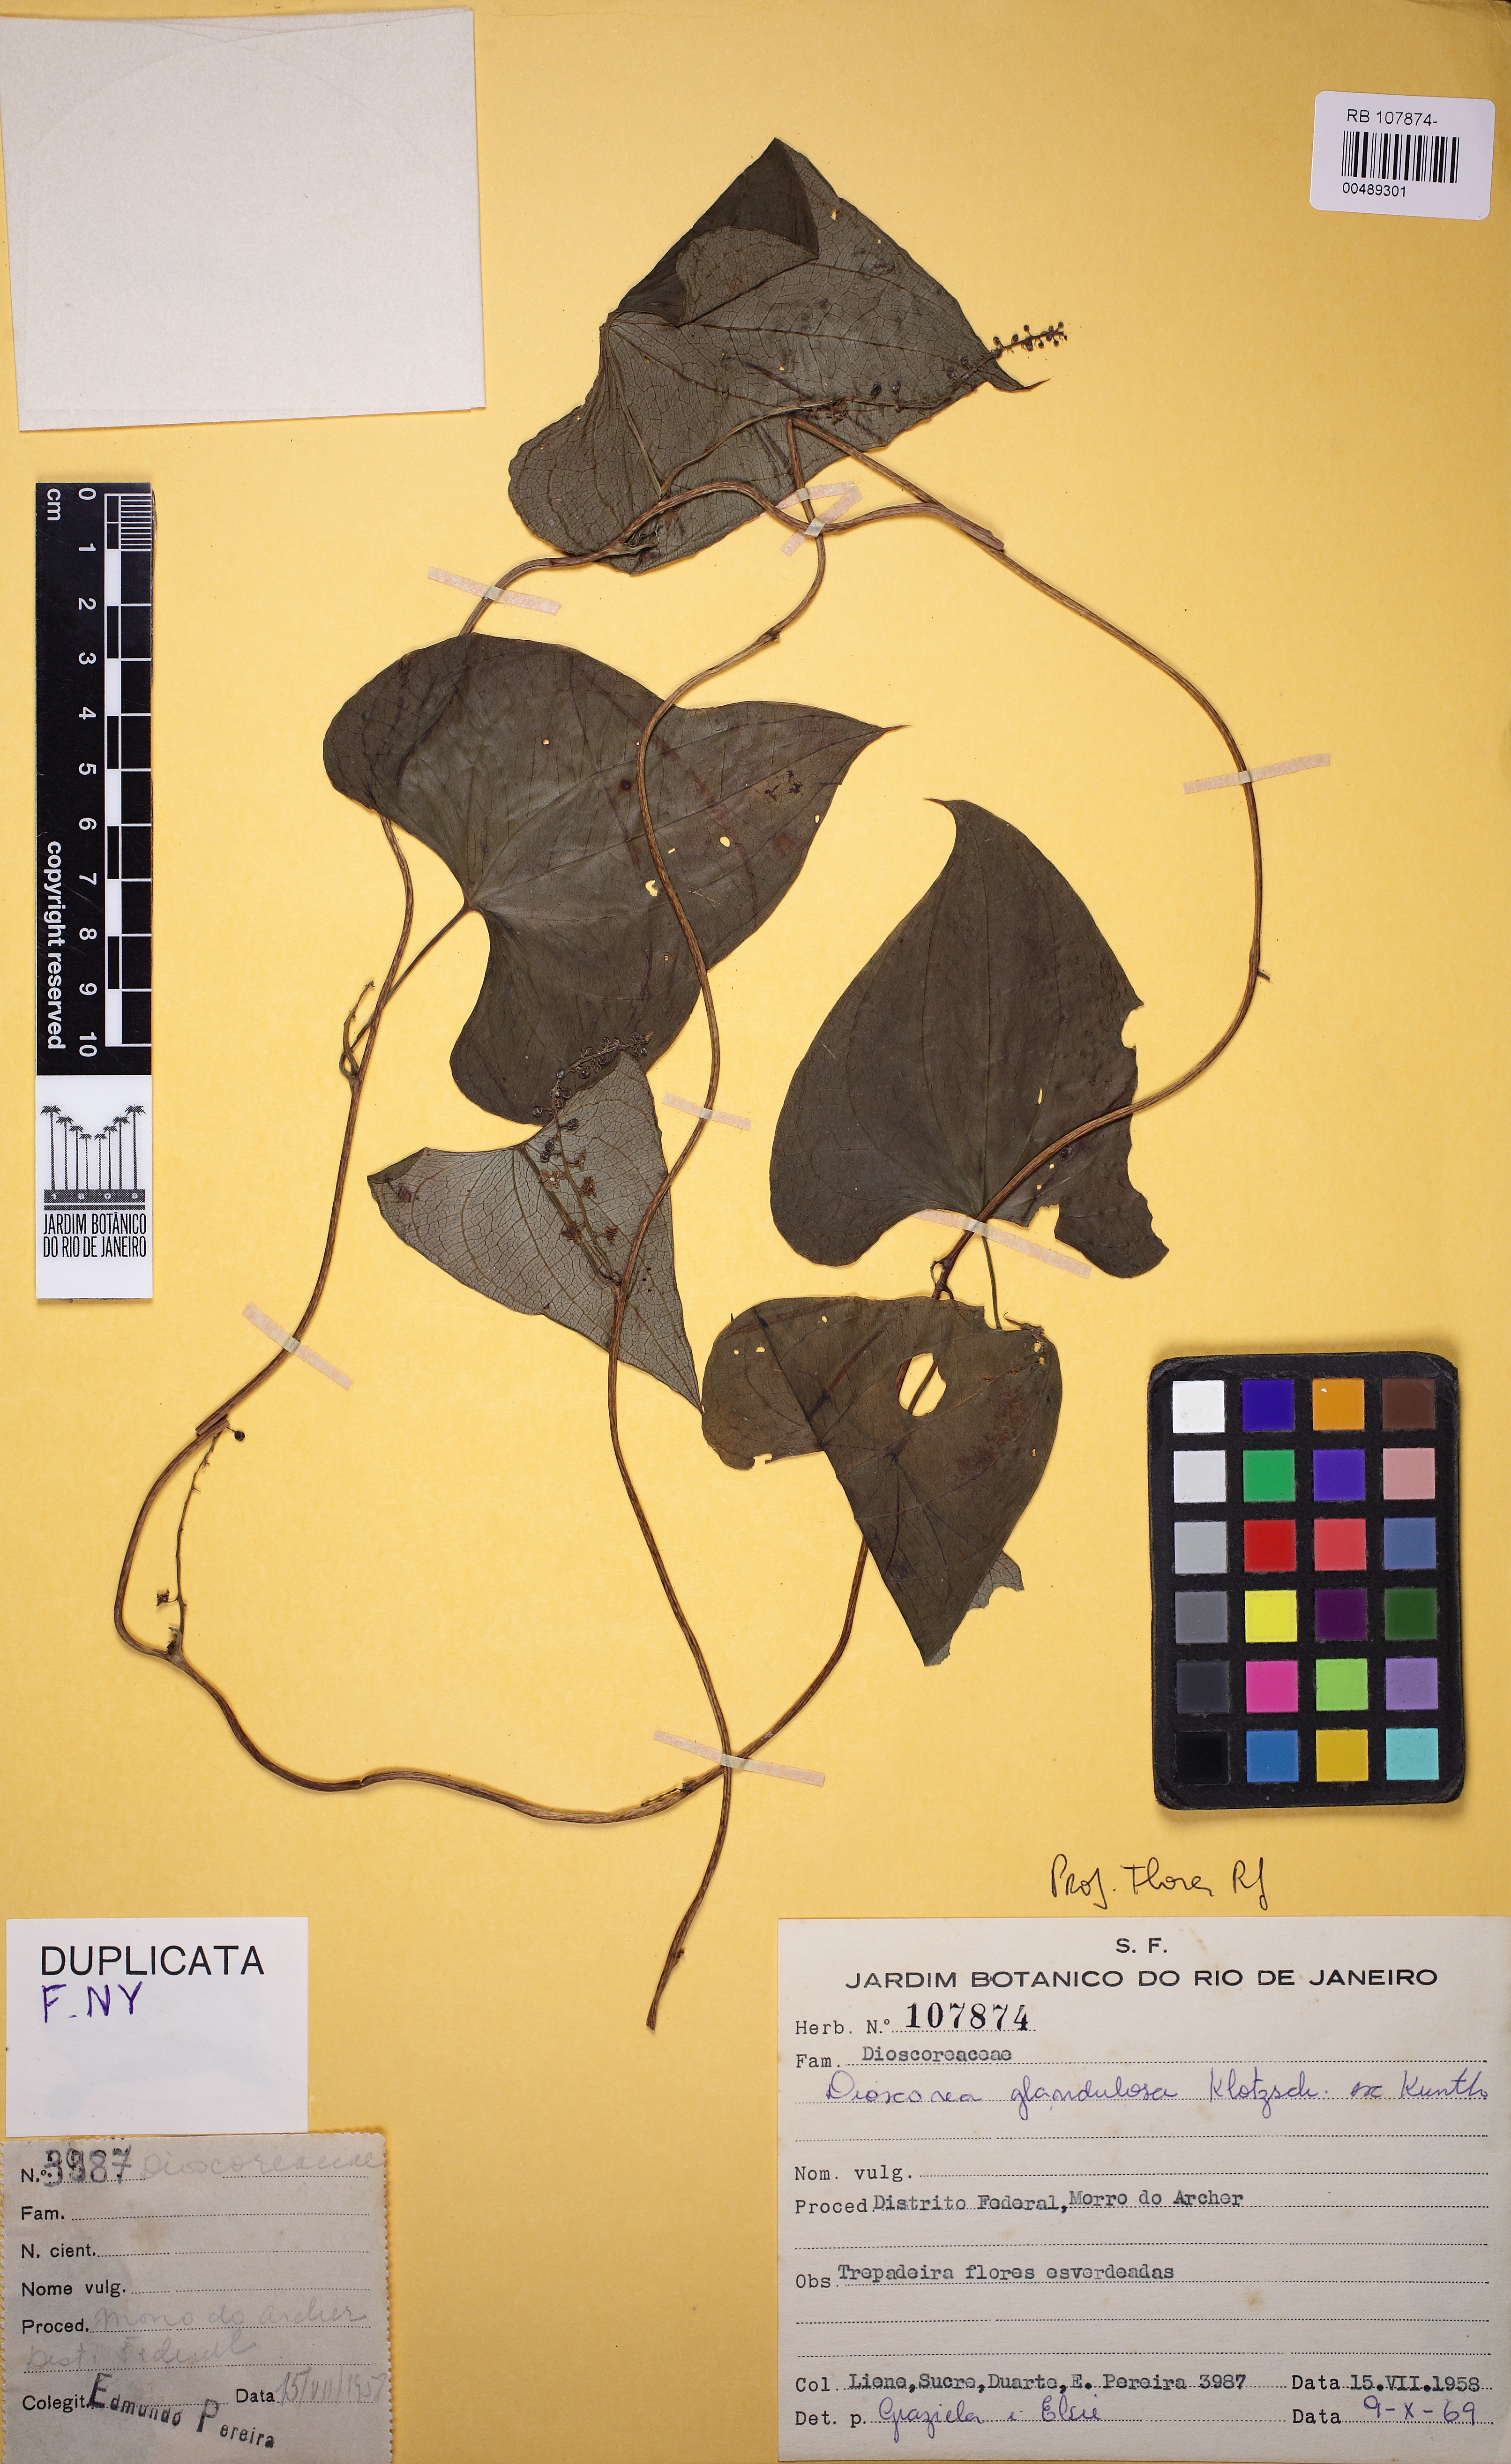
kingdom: Plantae
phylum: Tracheophyta
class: Liliopsida
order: Dioscoreales
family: Dioscoreaceae
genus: Dioscorea
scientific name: Dioscorea piperifolia
